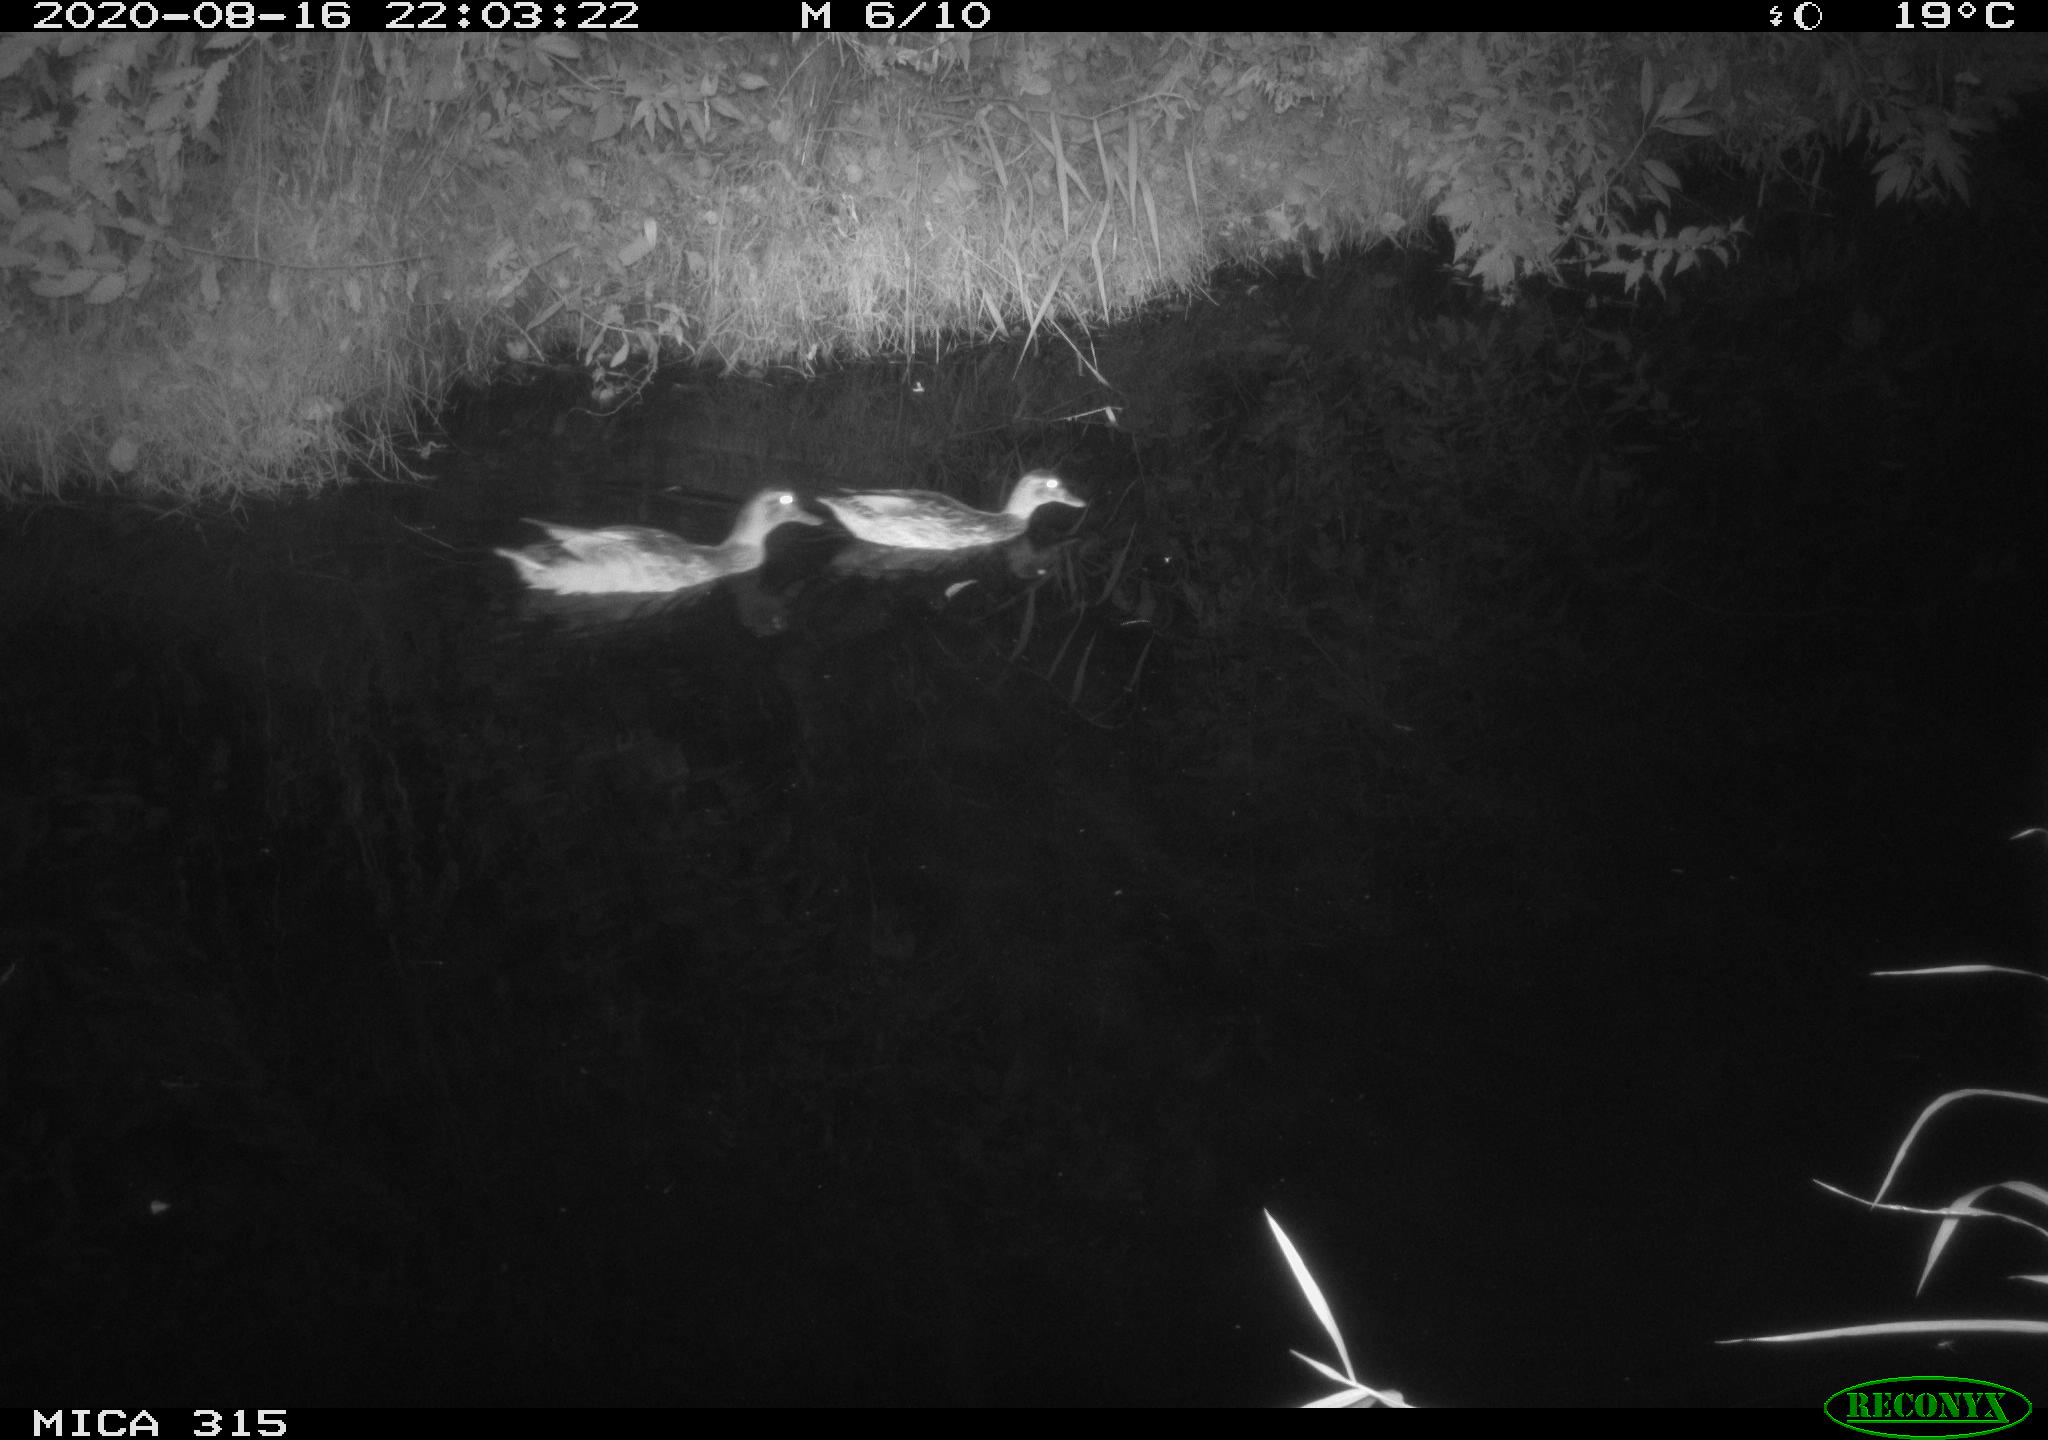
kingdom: Animalia
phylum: Chordata
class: Aves
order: Anseriformes
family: Anatidae
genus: Anas
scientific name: Anas platyrhynchos
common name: Mallard
